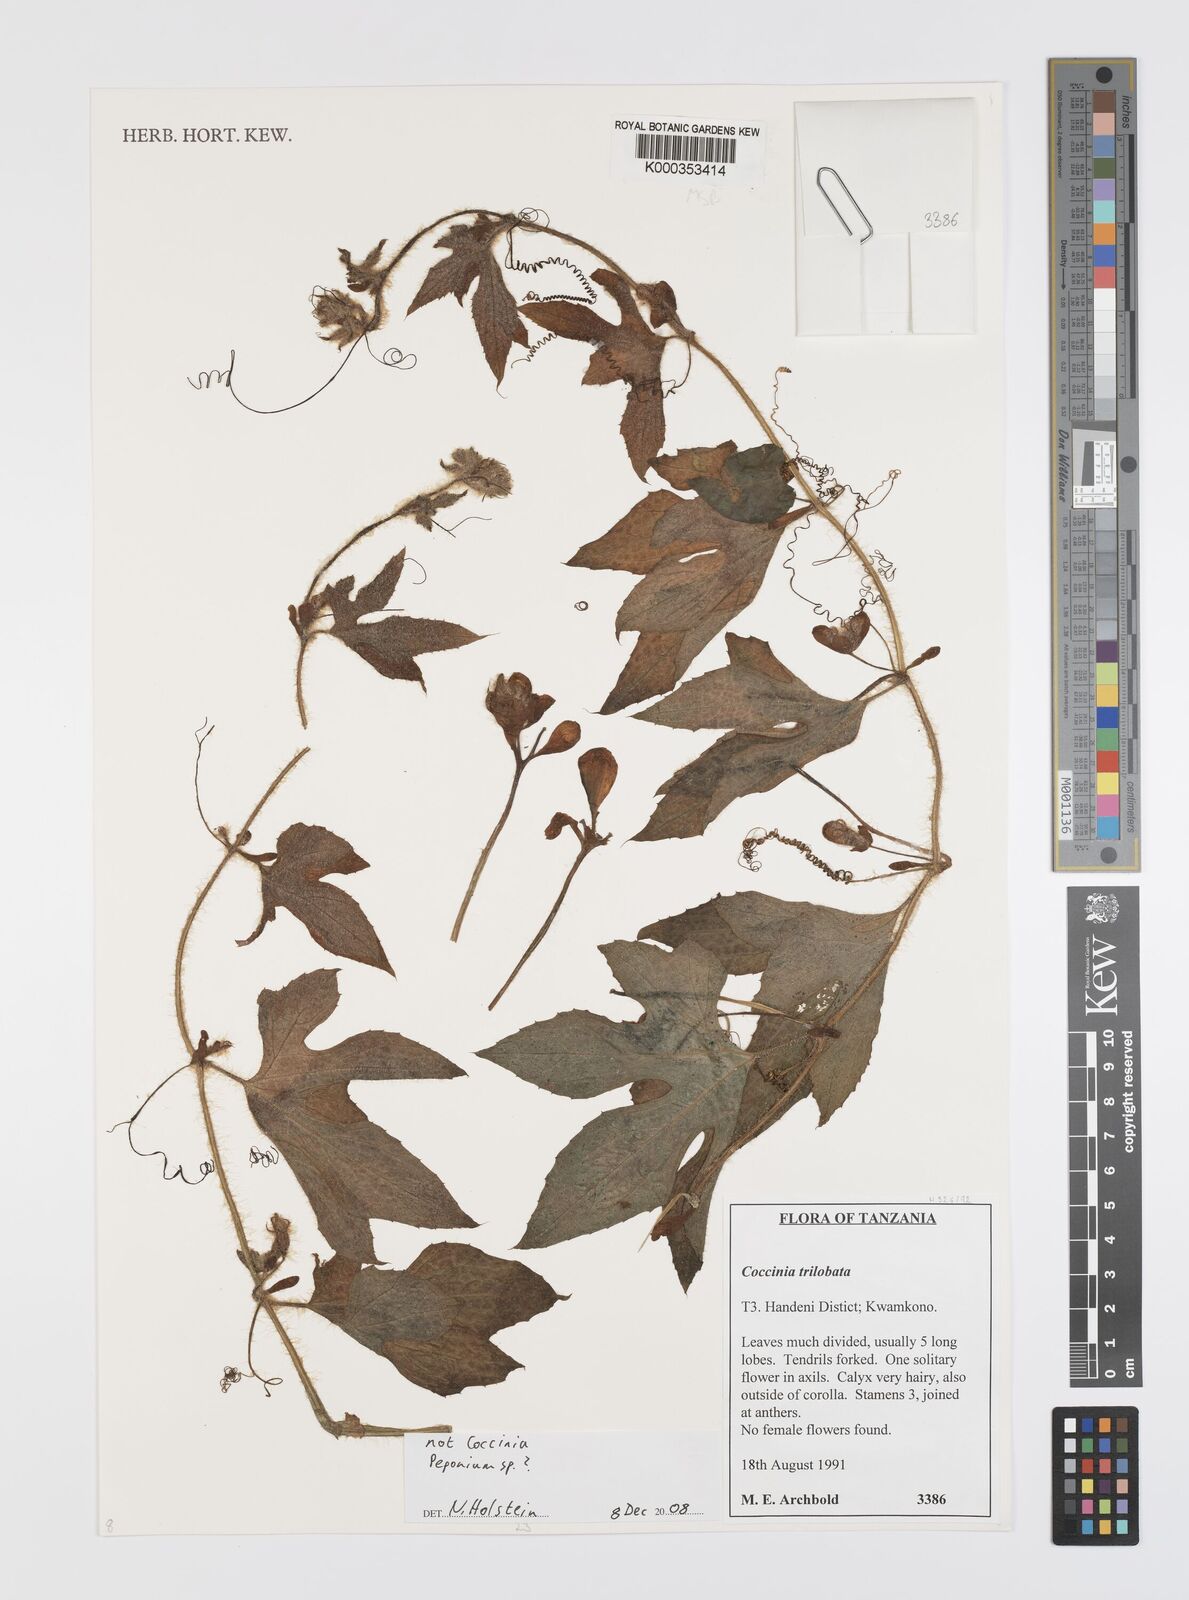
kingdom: Plantae
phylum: Tracheophyta
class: Magnoliopsida
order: Cucurbitales
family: Cucurbitaceae
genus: Coccinia
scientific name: Coccinia trilobata
